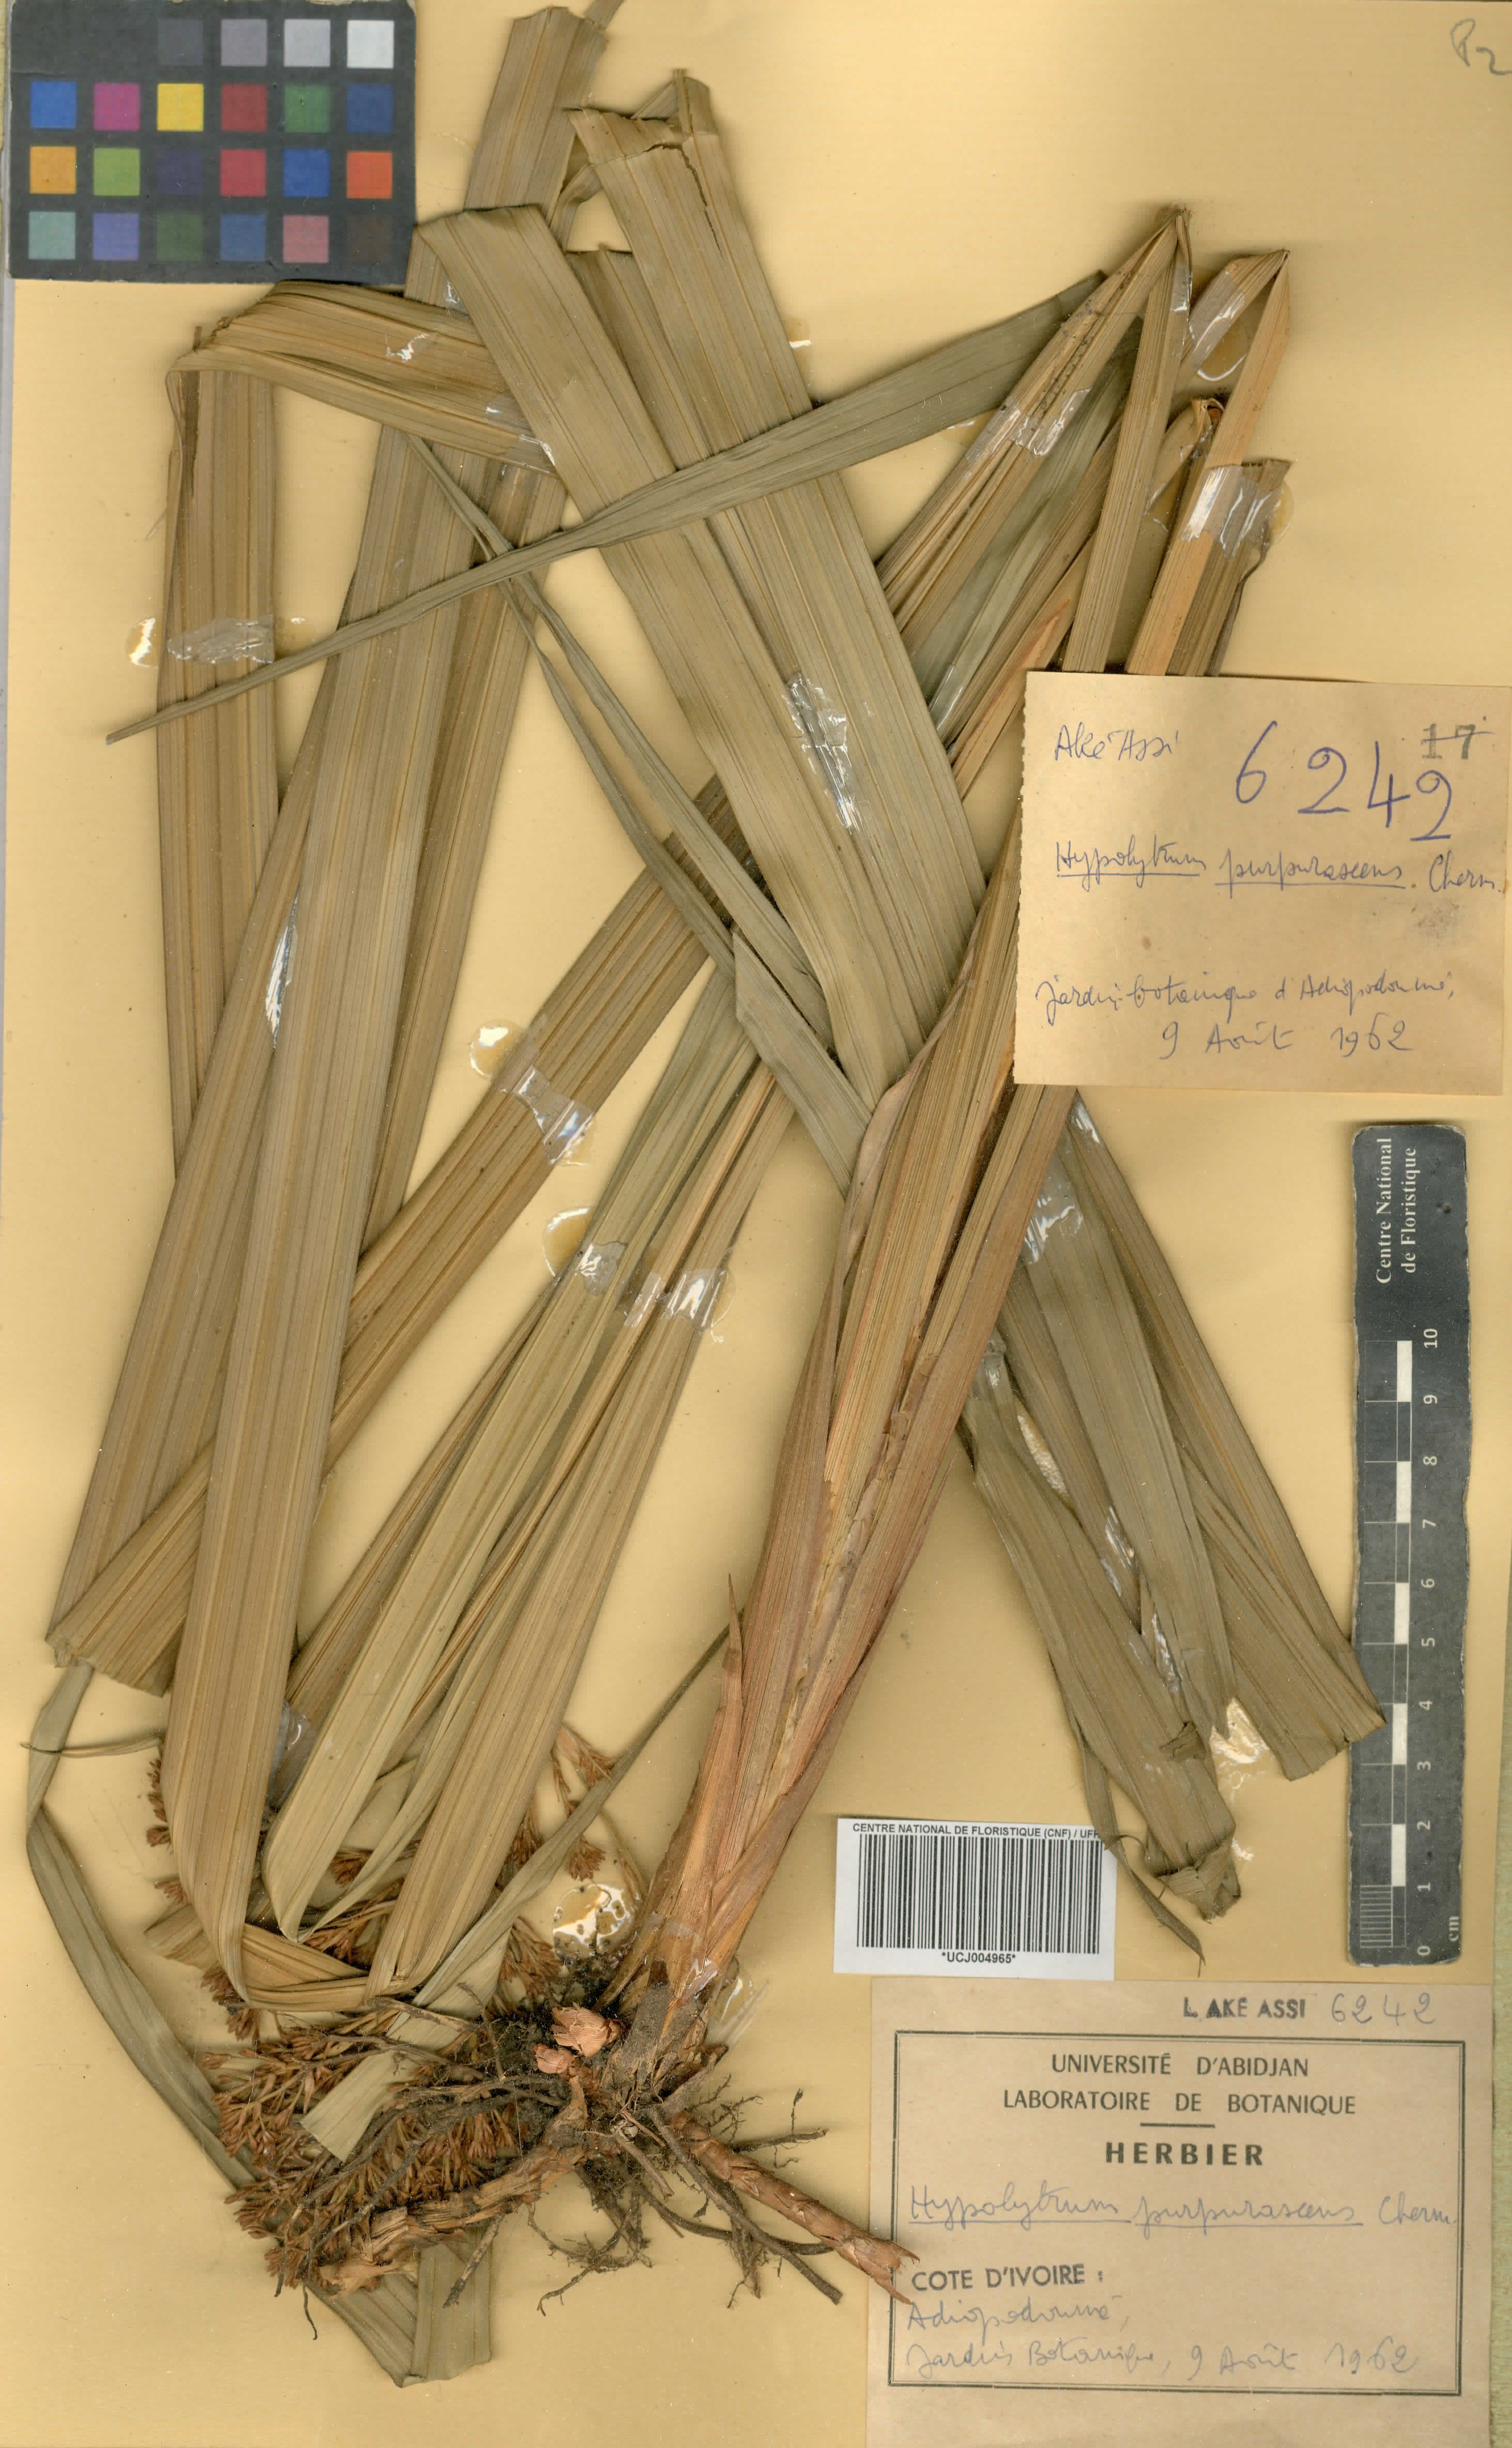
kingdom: Plantae
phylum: Tracheophyta
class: Liliopsida
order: Poales
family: Cyperaceae
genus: Hypolytrum
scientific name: Hypolytrum purpurascens
